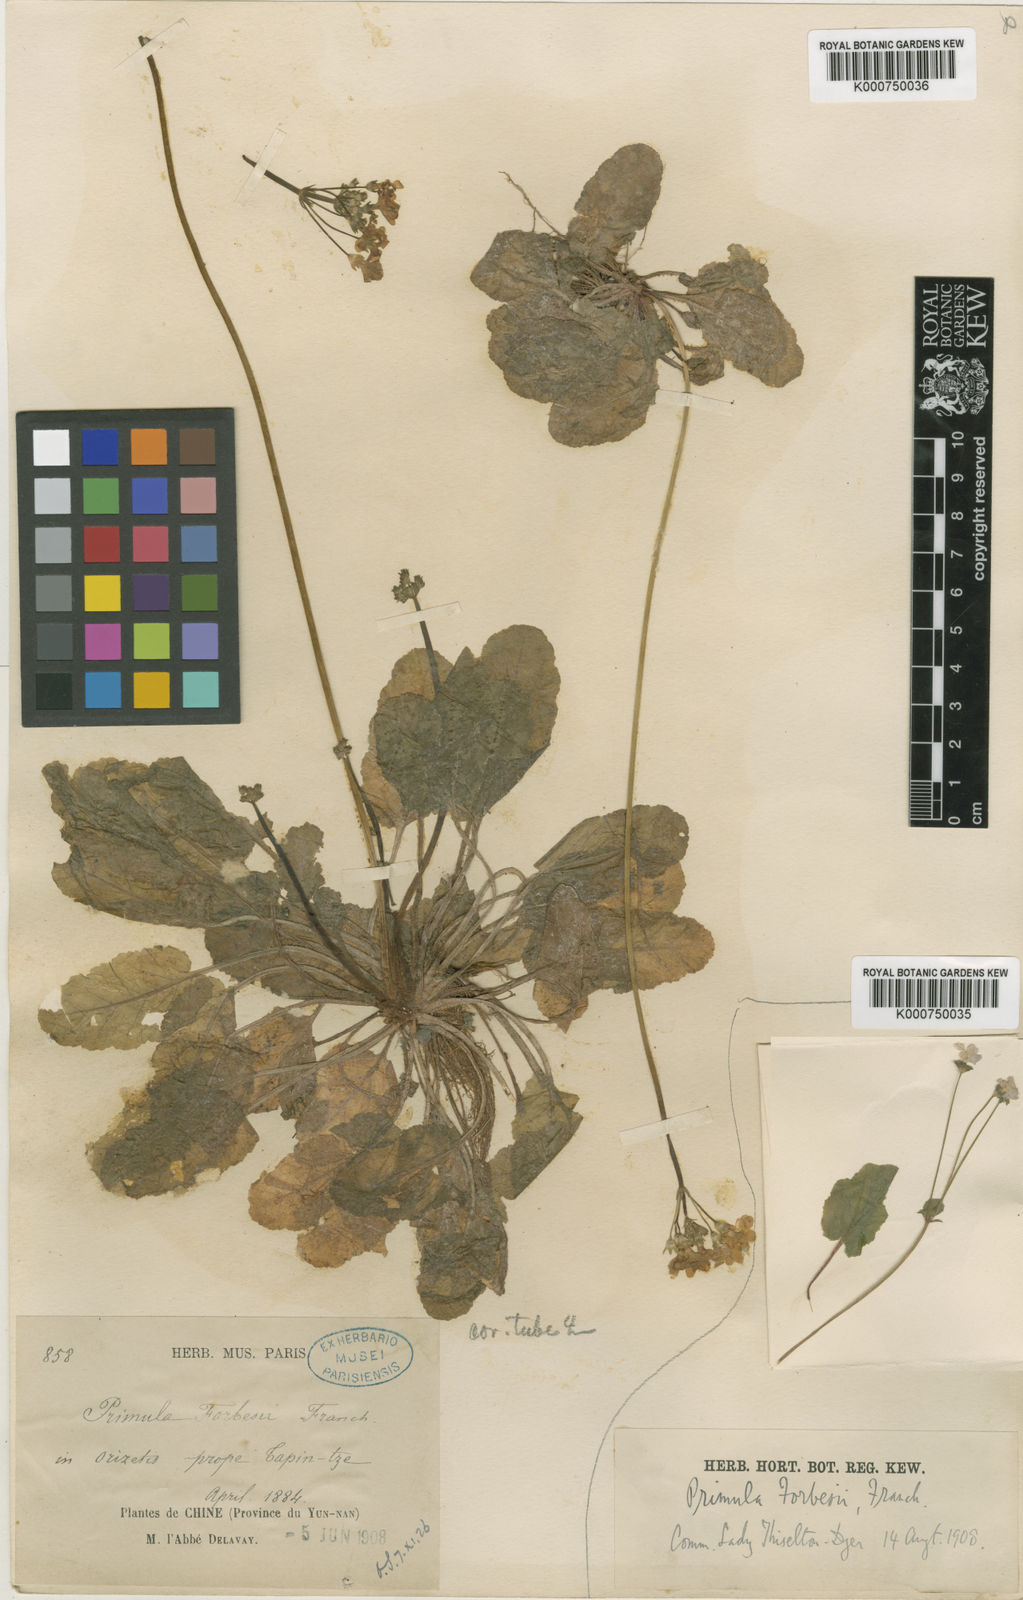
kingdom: Plantae
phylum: Tracheophyta
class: Magnoliopsida
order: Ericales
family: Primulaceae
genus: Primula
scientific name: Primula filipes
